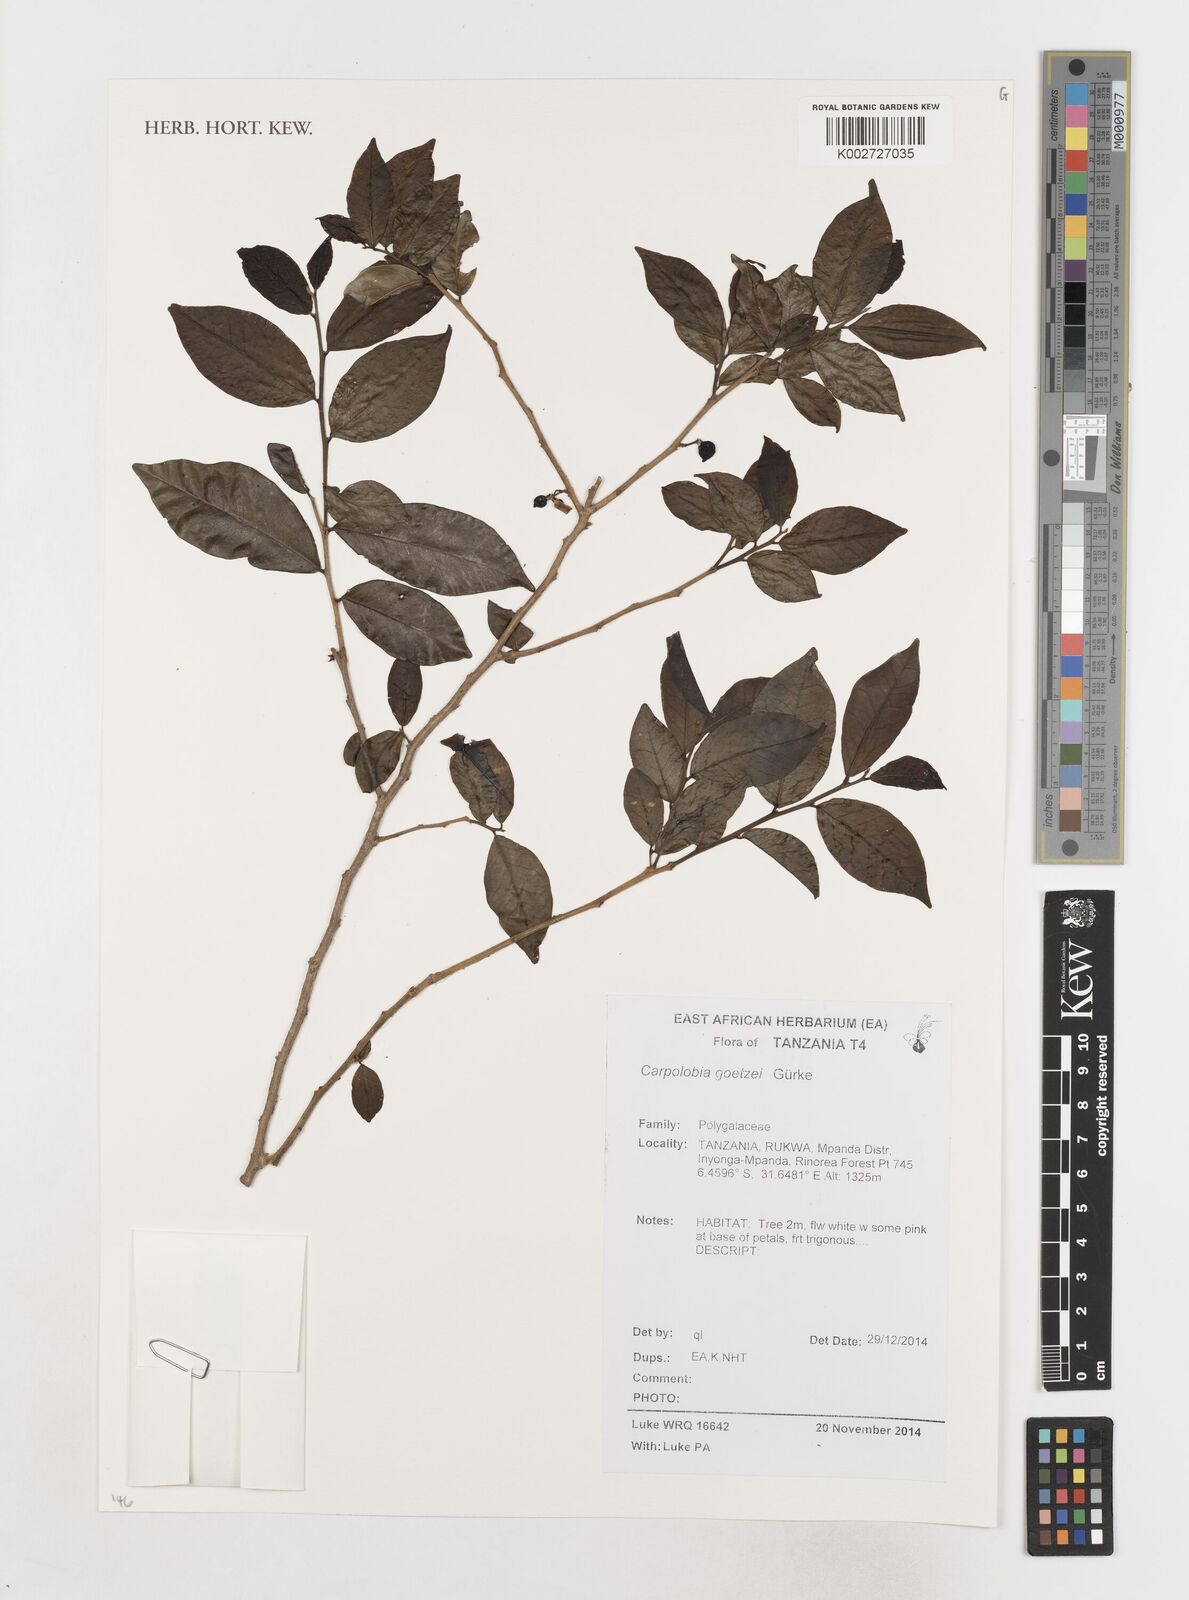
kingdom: Plantae
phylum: Tracheophyta
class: Magnoliopsida
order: Fabales
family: Polygalaceae
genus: Carpolobia
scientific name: Carpolobia goetzei
